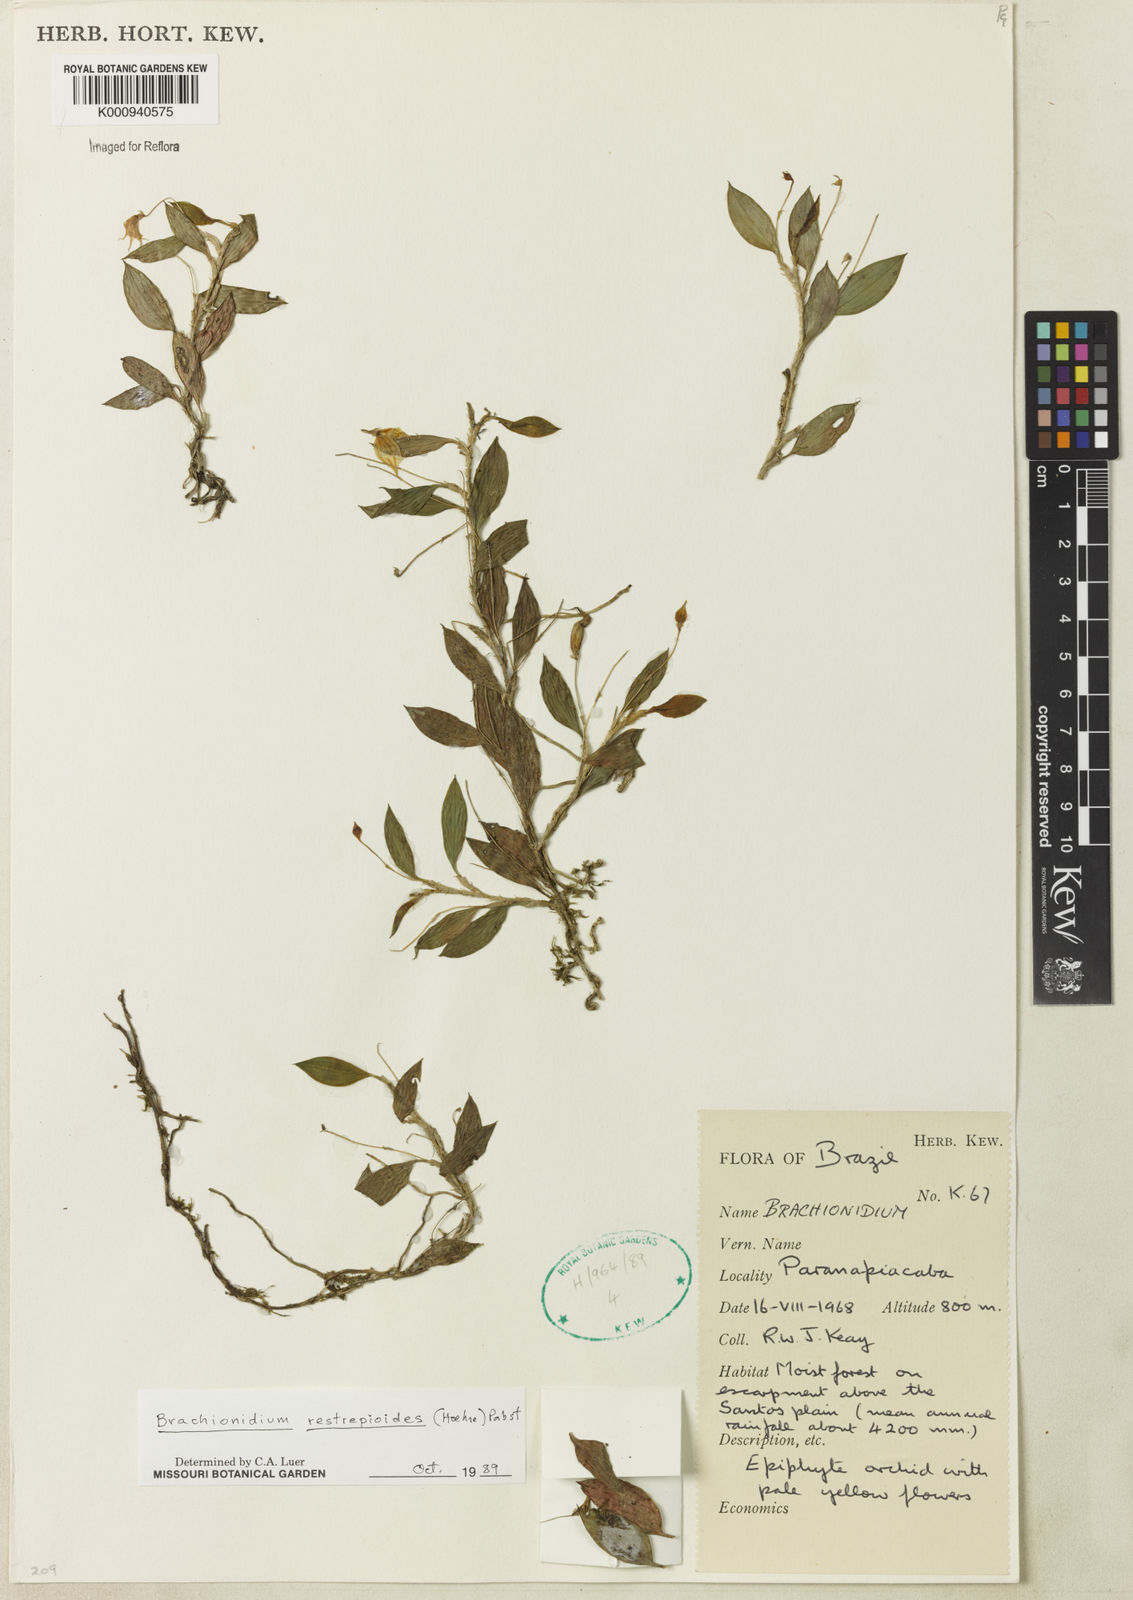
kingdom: Plantae
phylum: Tracheophyta
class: Liliopsida
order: Asparagales
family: Orchidaceae
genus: Brachionidium
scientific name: Brachionidium restrepioides
